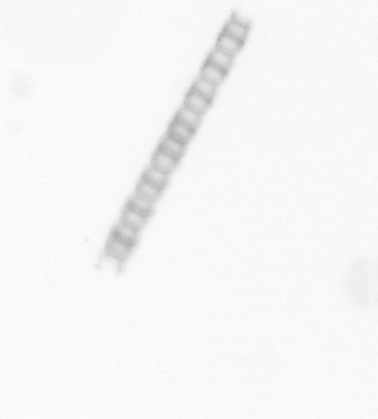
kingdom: Chromista
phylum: Ochrophyta
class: Bacillariophyceae
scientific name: Bacillariophyceae
